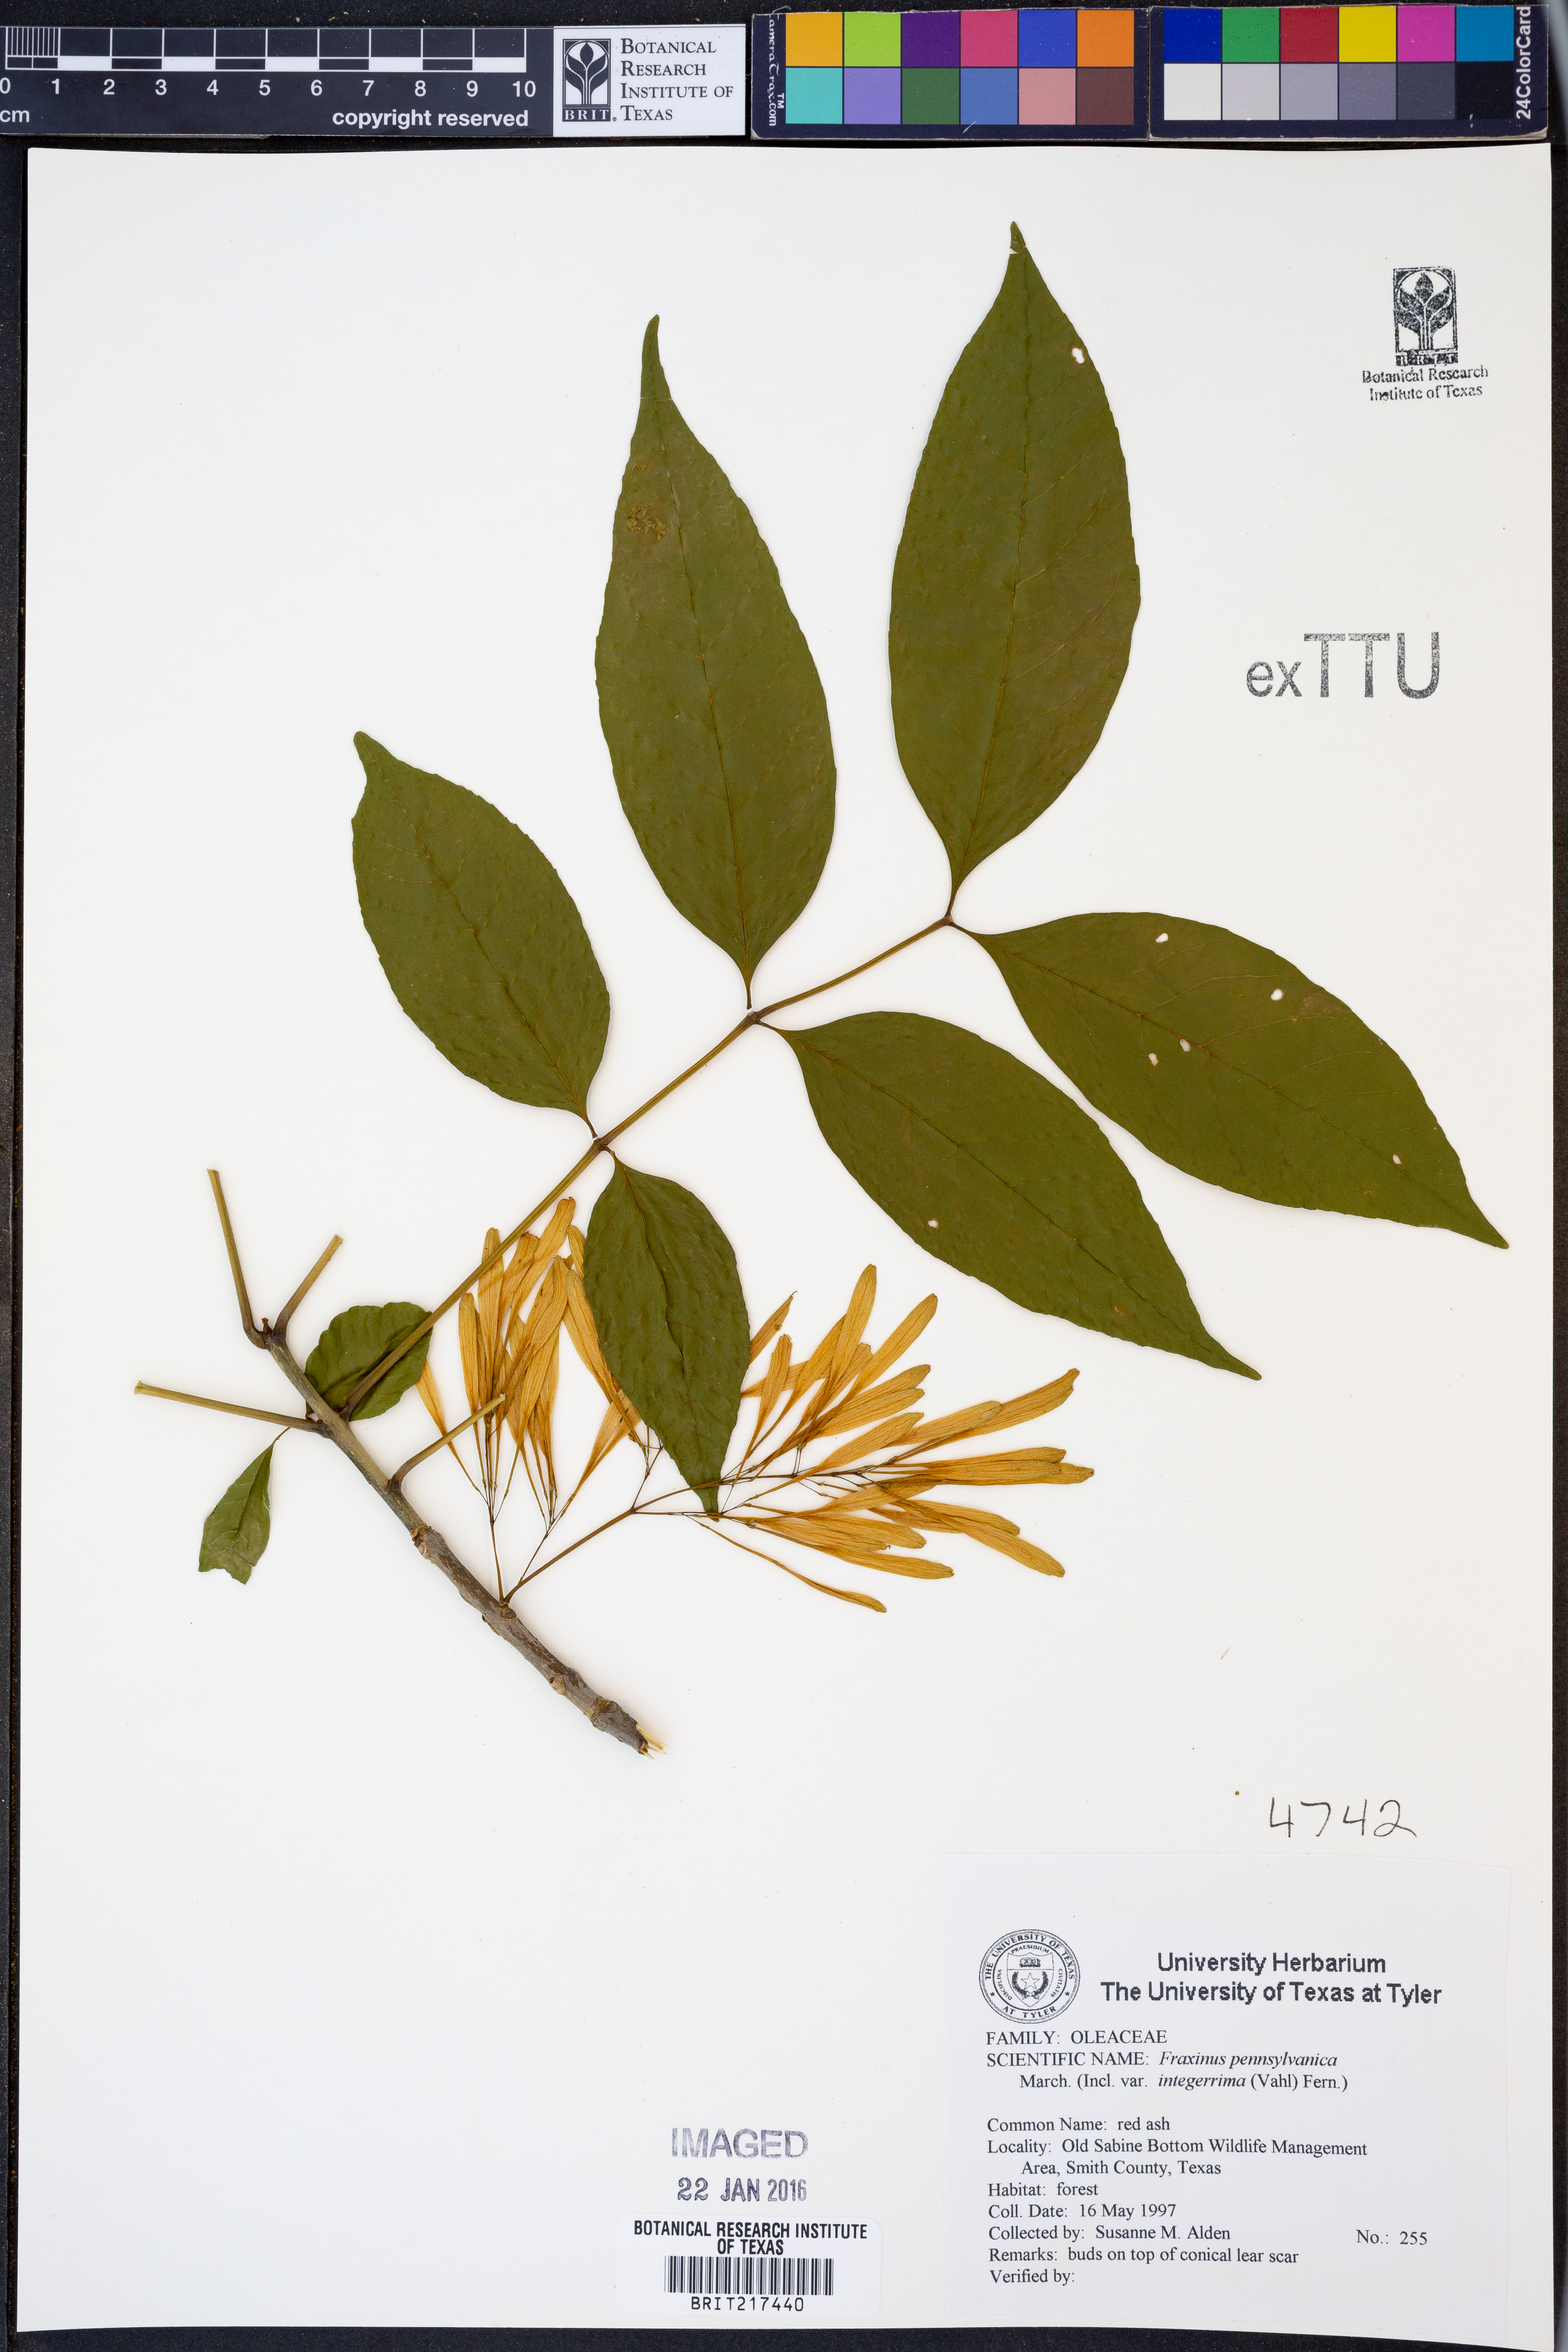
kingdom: Plantae
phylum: Tracheophyta
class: Magnoliopsida
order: Lamiales
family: Oleaceae
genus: Fraxinus
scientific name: Fraxinus pennsylvanica
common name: Green ash
